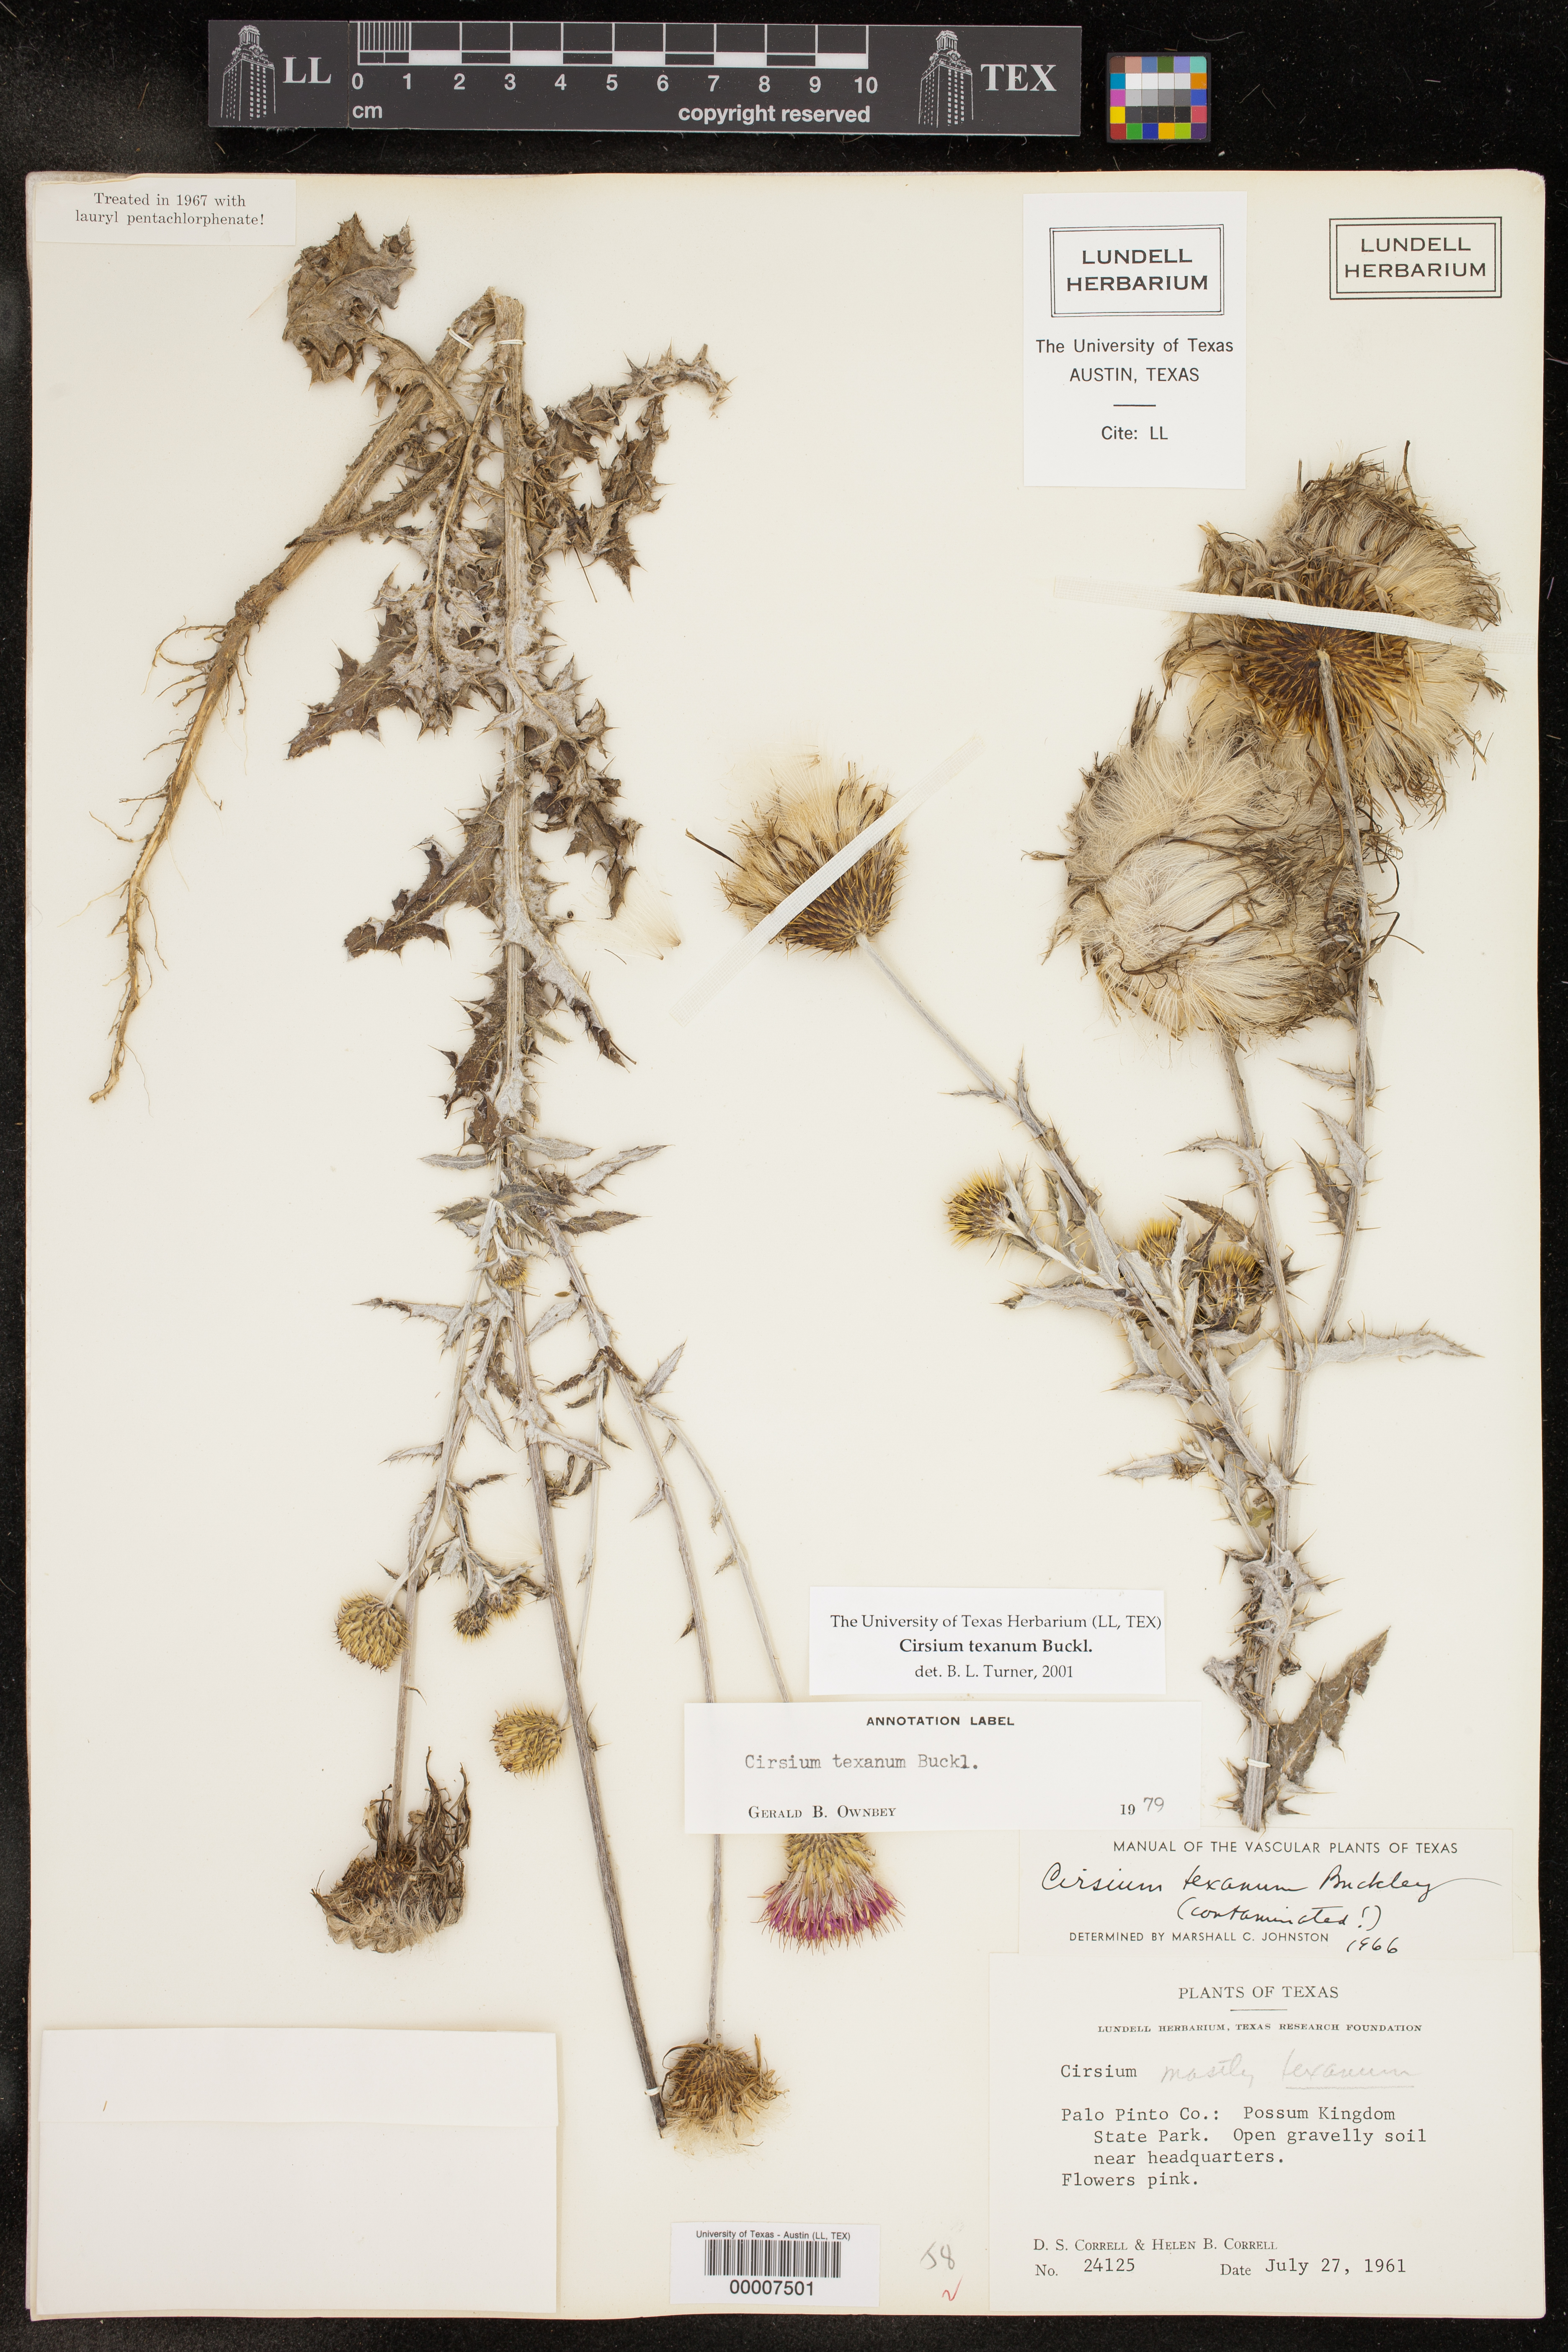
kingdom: Plantae
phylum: Tracheophyta
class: Magnoliopsida
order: Asterales
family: Asteraceae
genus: Cirsium
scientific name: Cirsium texanum
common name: Texas purple thistle
